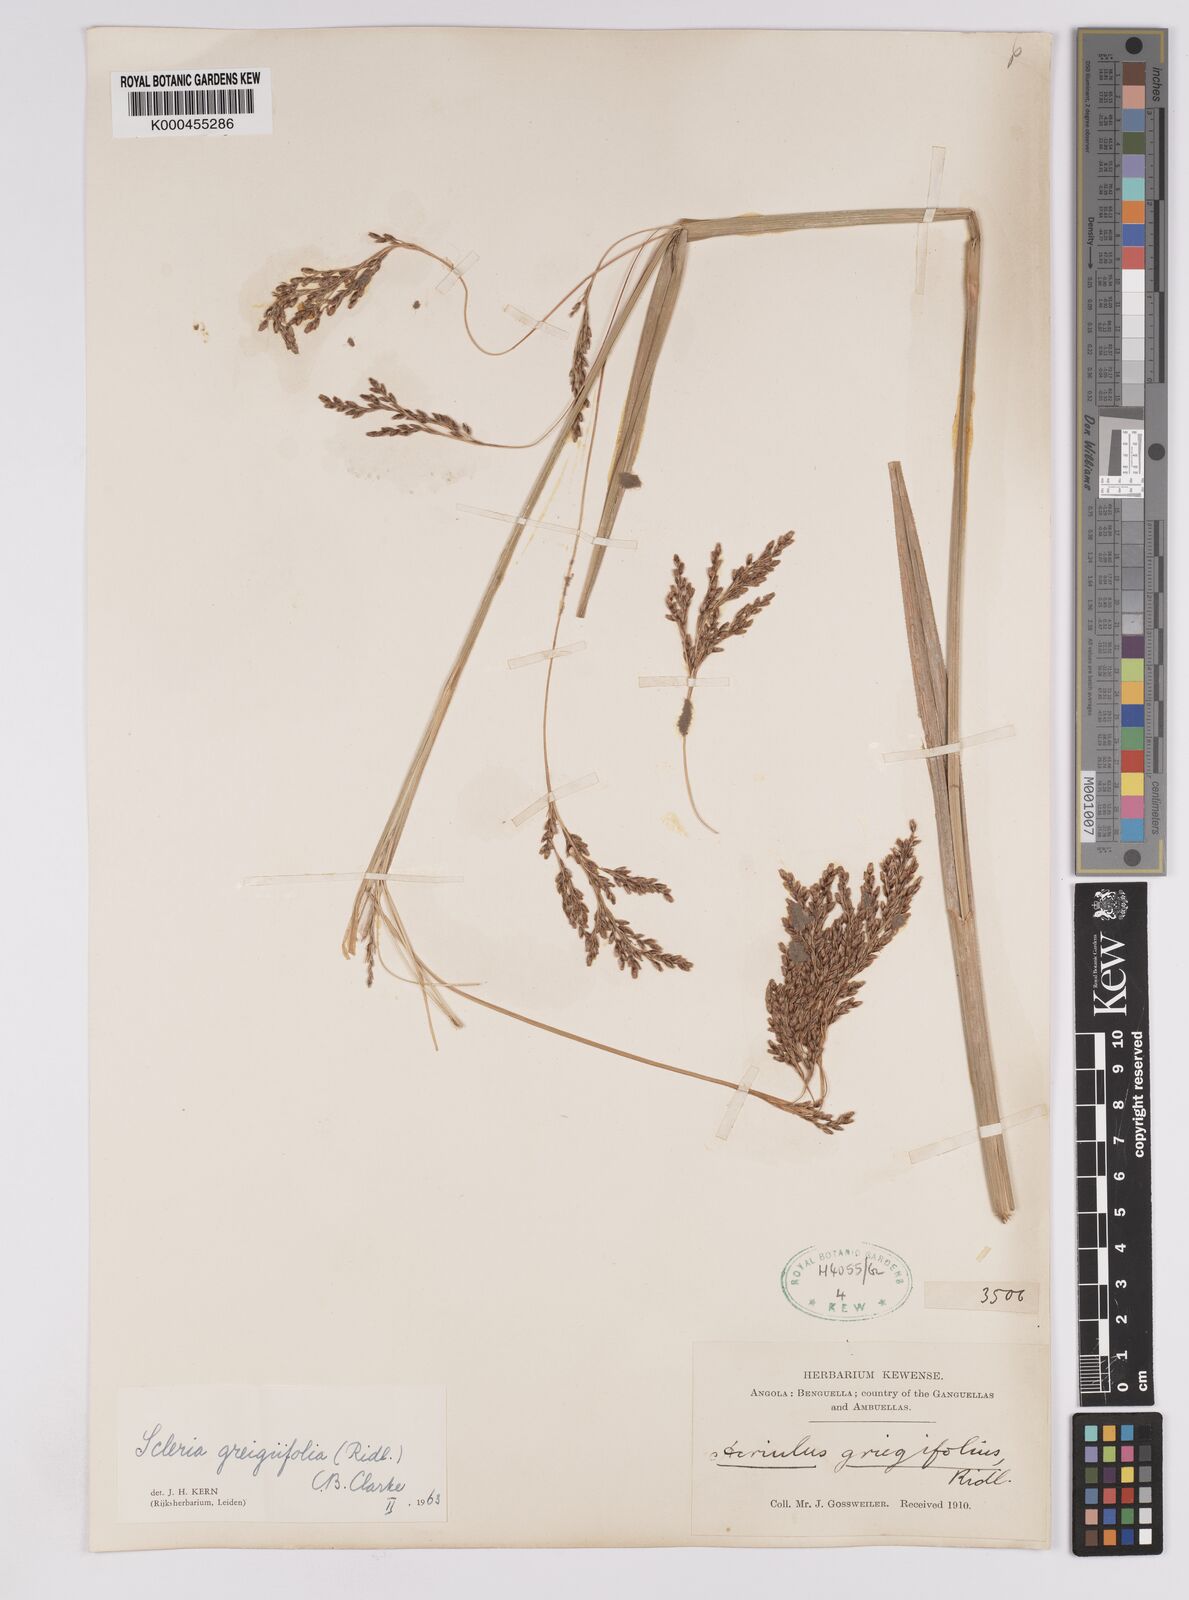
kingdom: Plantae
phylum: Tracheophyta
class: Liliopsida
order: Poales
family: Cyperaceae
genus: Scleria
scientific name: Scleria greigiifolia
